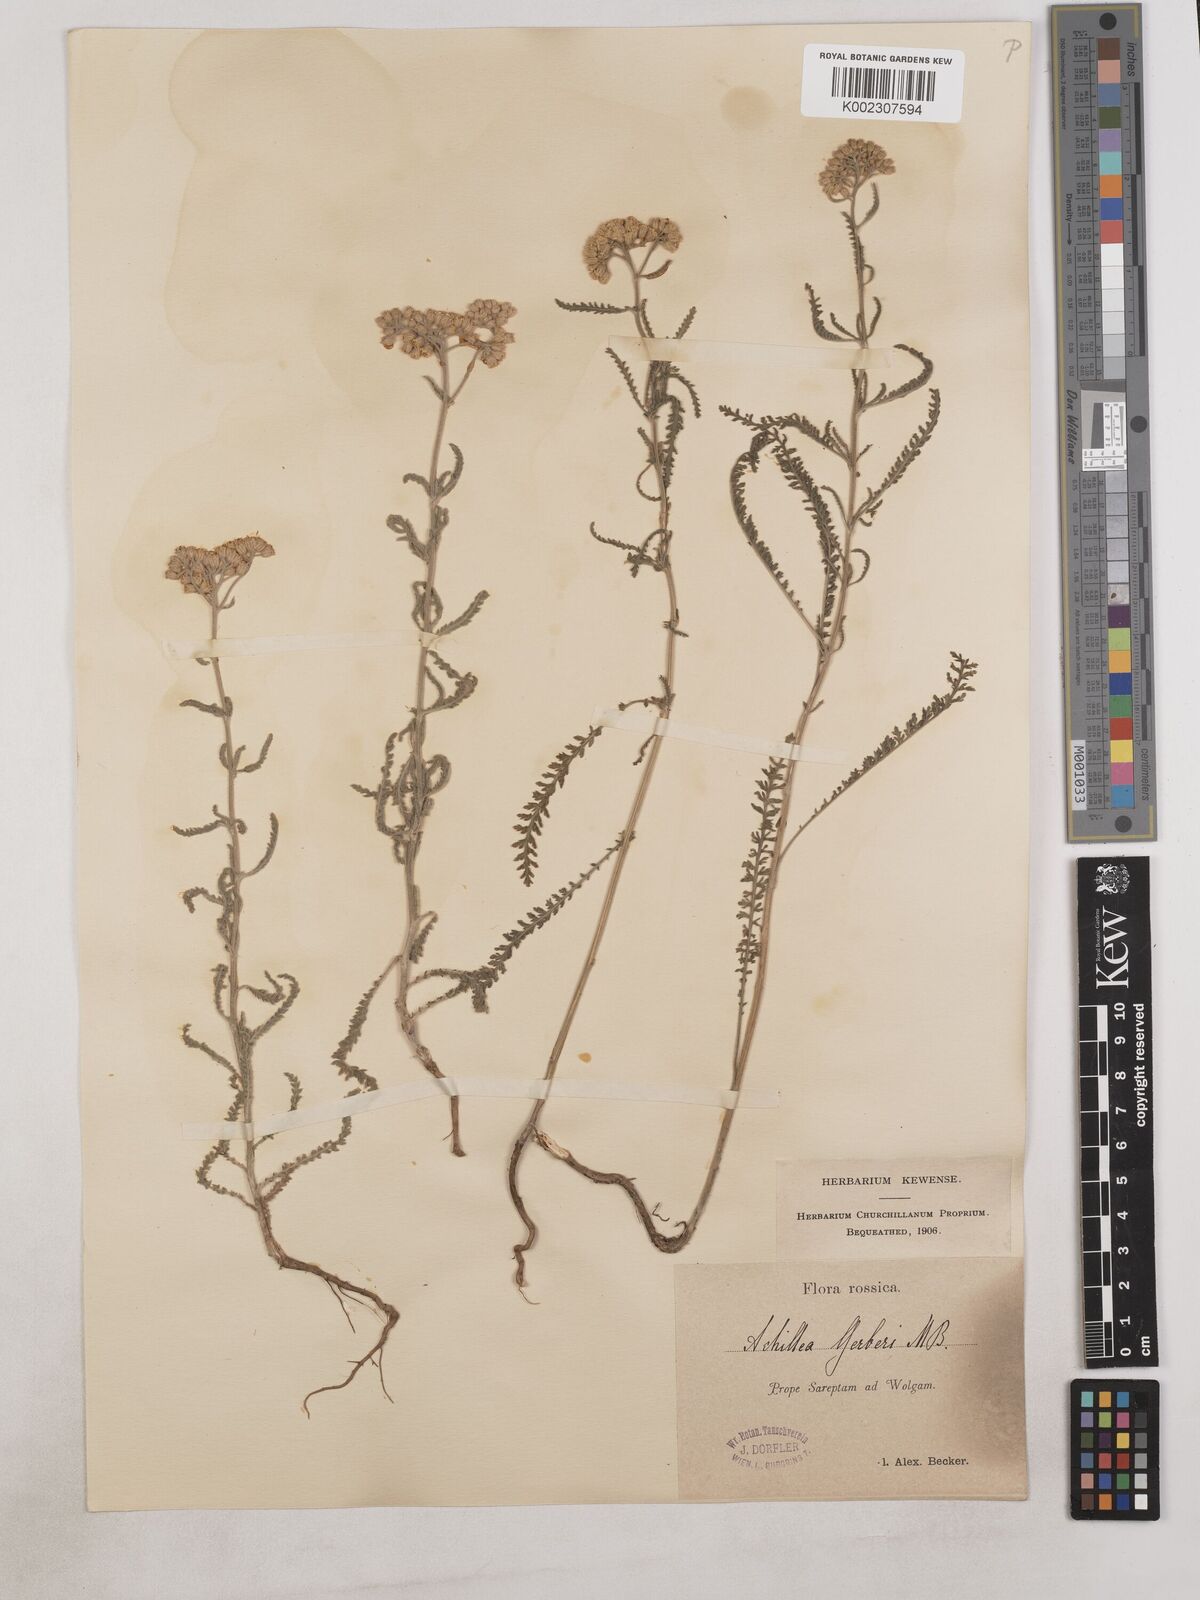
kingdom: Plantae
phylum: Tracheophyta
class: Magnoliopsida
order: Asterales
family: Asteraceae
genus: Achillea
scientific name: Achillea
